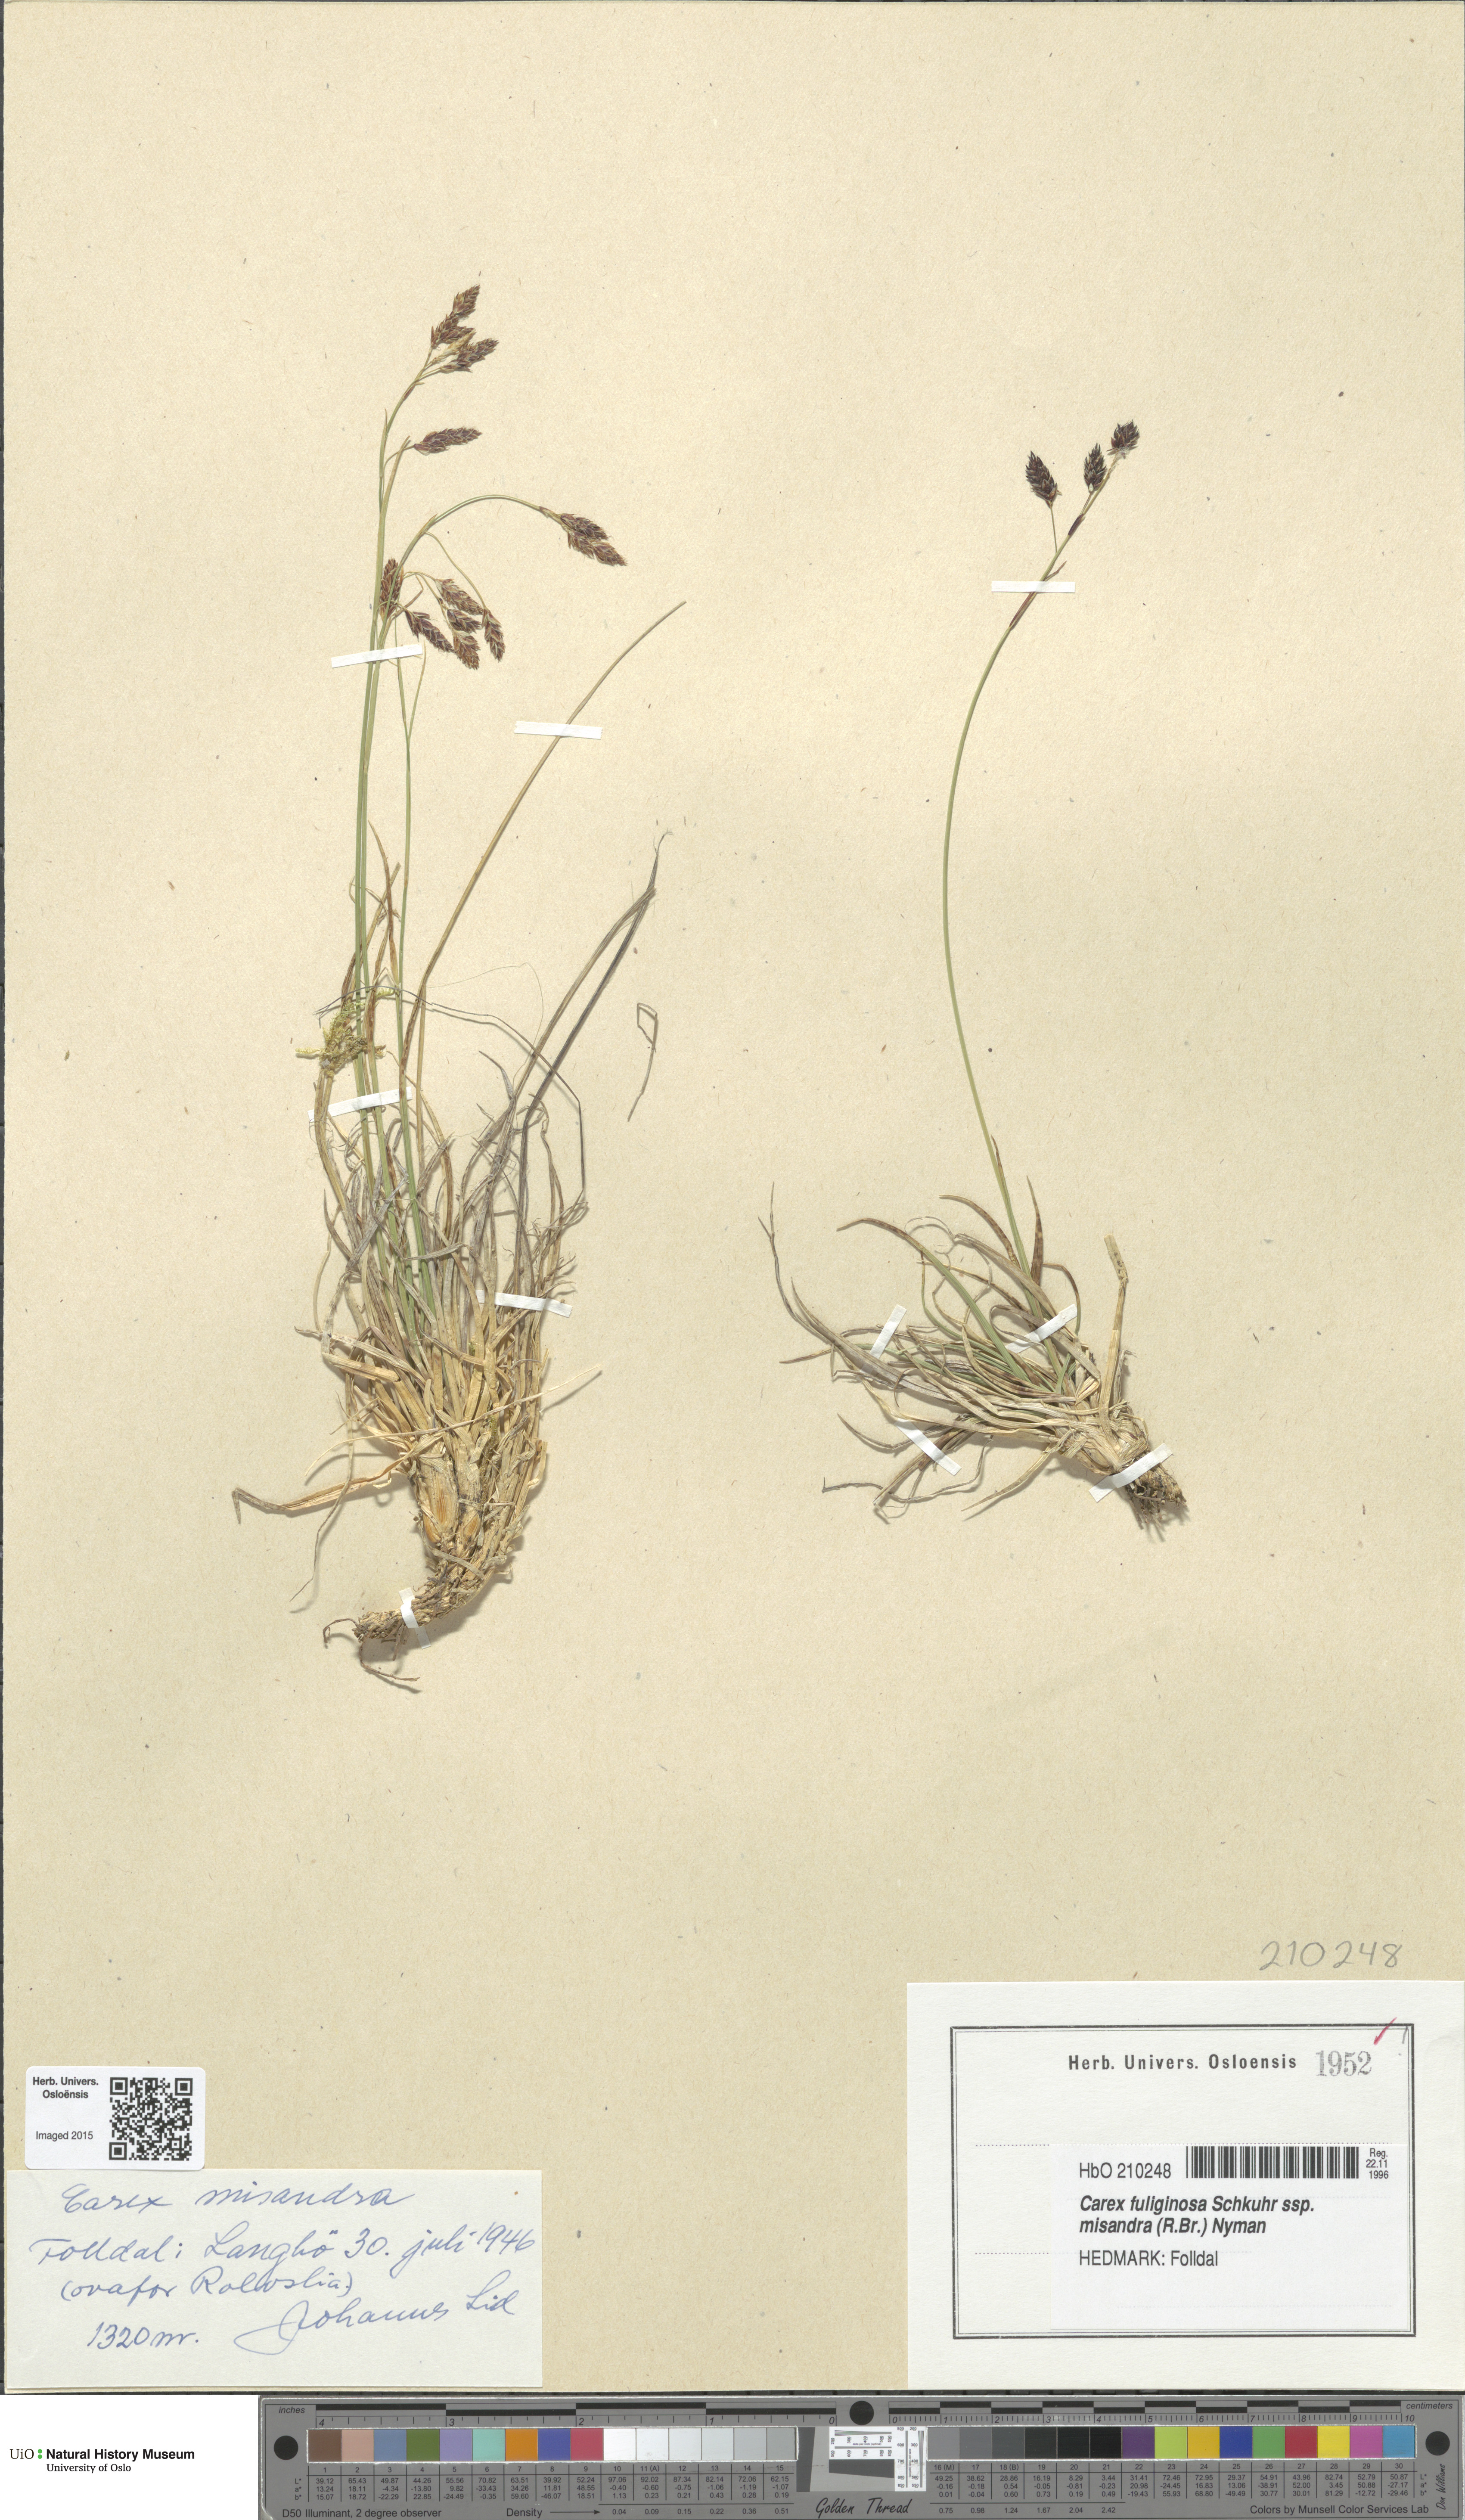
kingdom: Plantae
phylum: Tracheophyta
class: Liliopsida
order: Poales
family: Cyperaceae
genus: Carex
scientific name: Carex fuliginosa
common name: Few-flowered sedge
